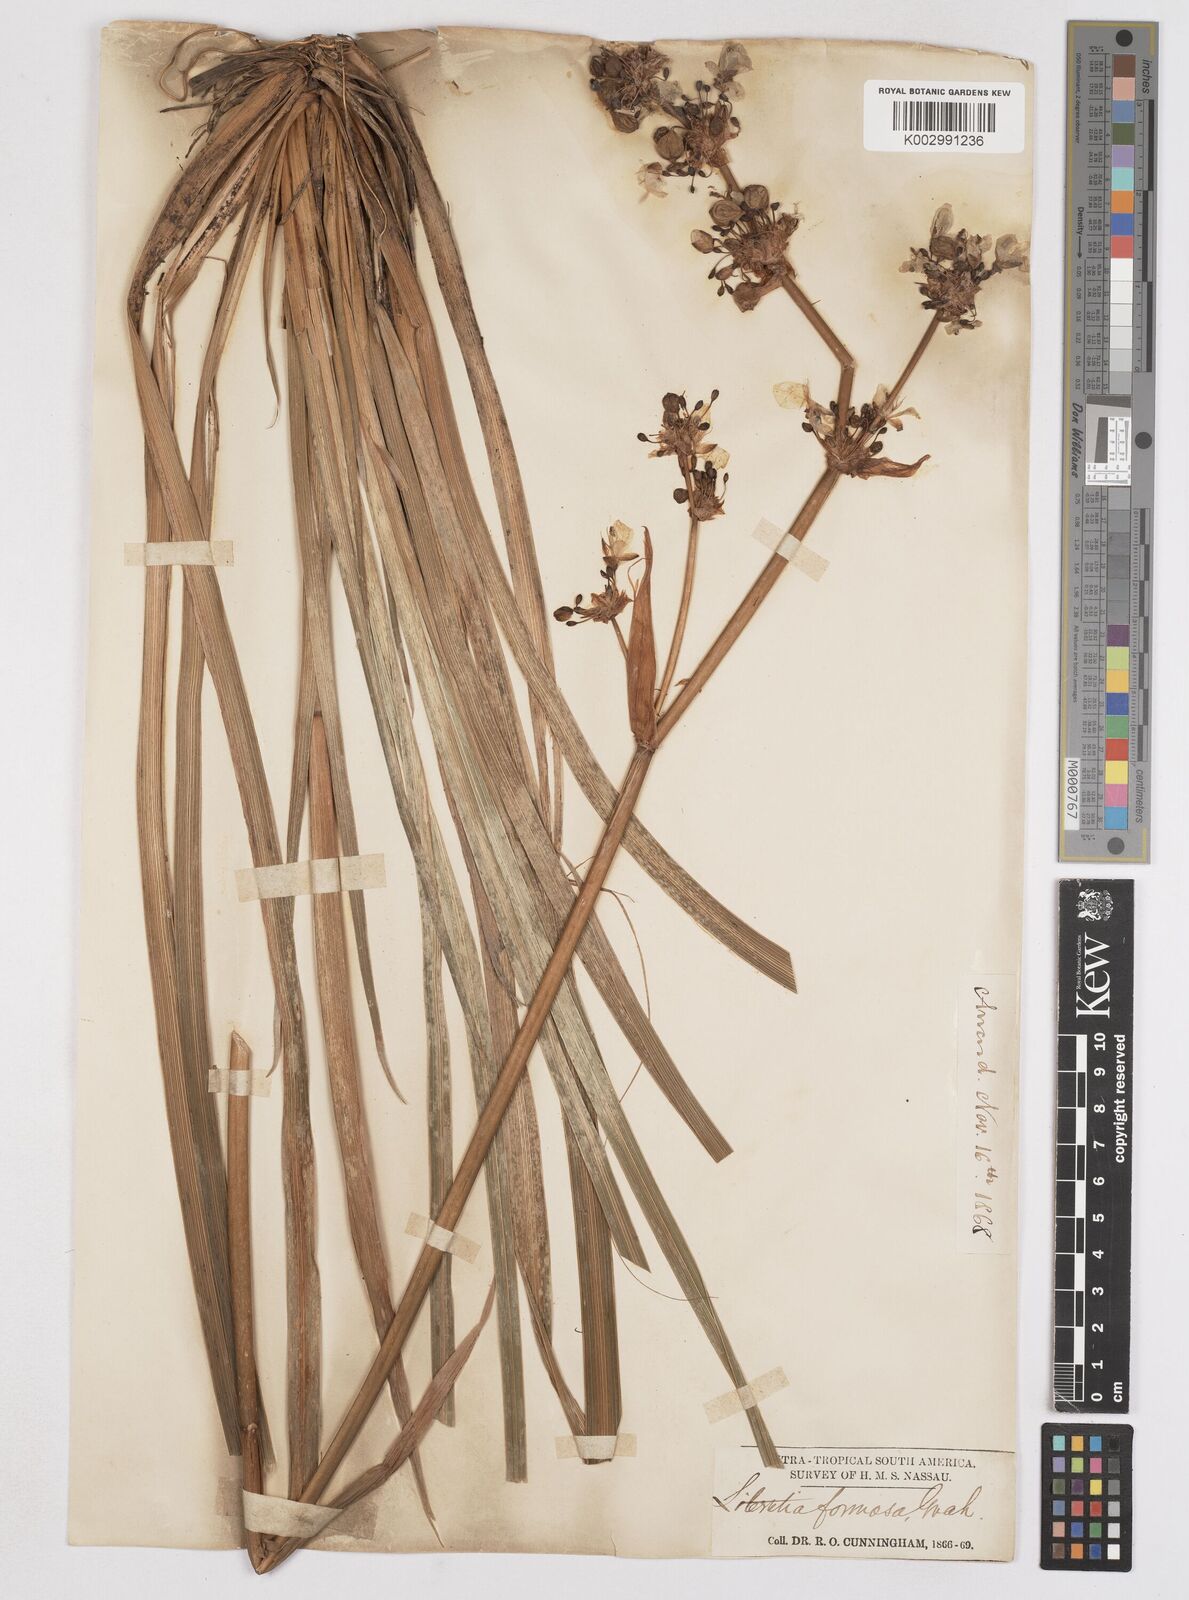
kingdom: Plantae
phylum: Tracheophyta
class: Liliopsida
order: Asparagales
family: Iridaceae
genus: Libertia
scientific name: Libertia chilensis
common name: Satin flower
